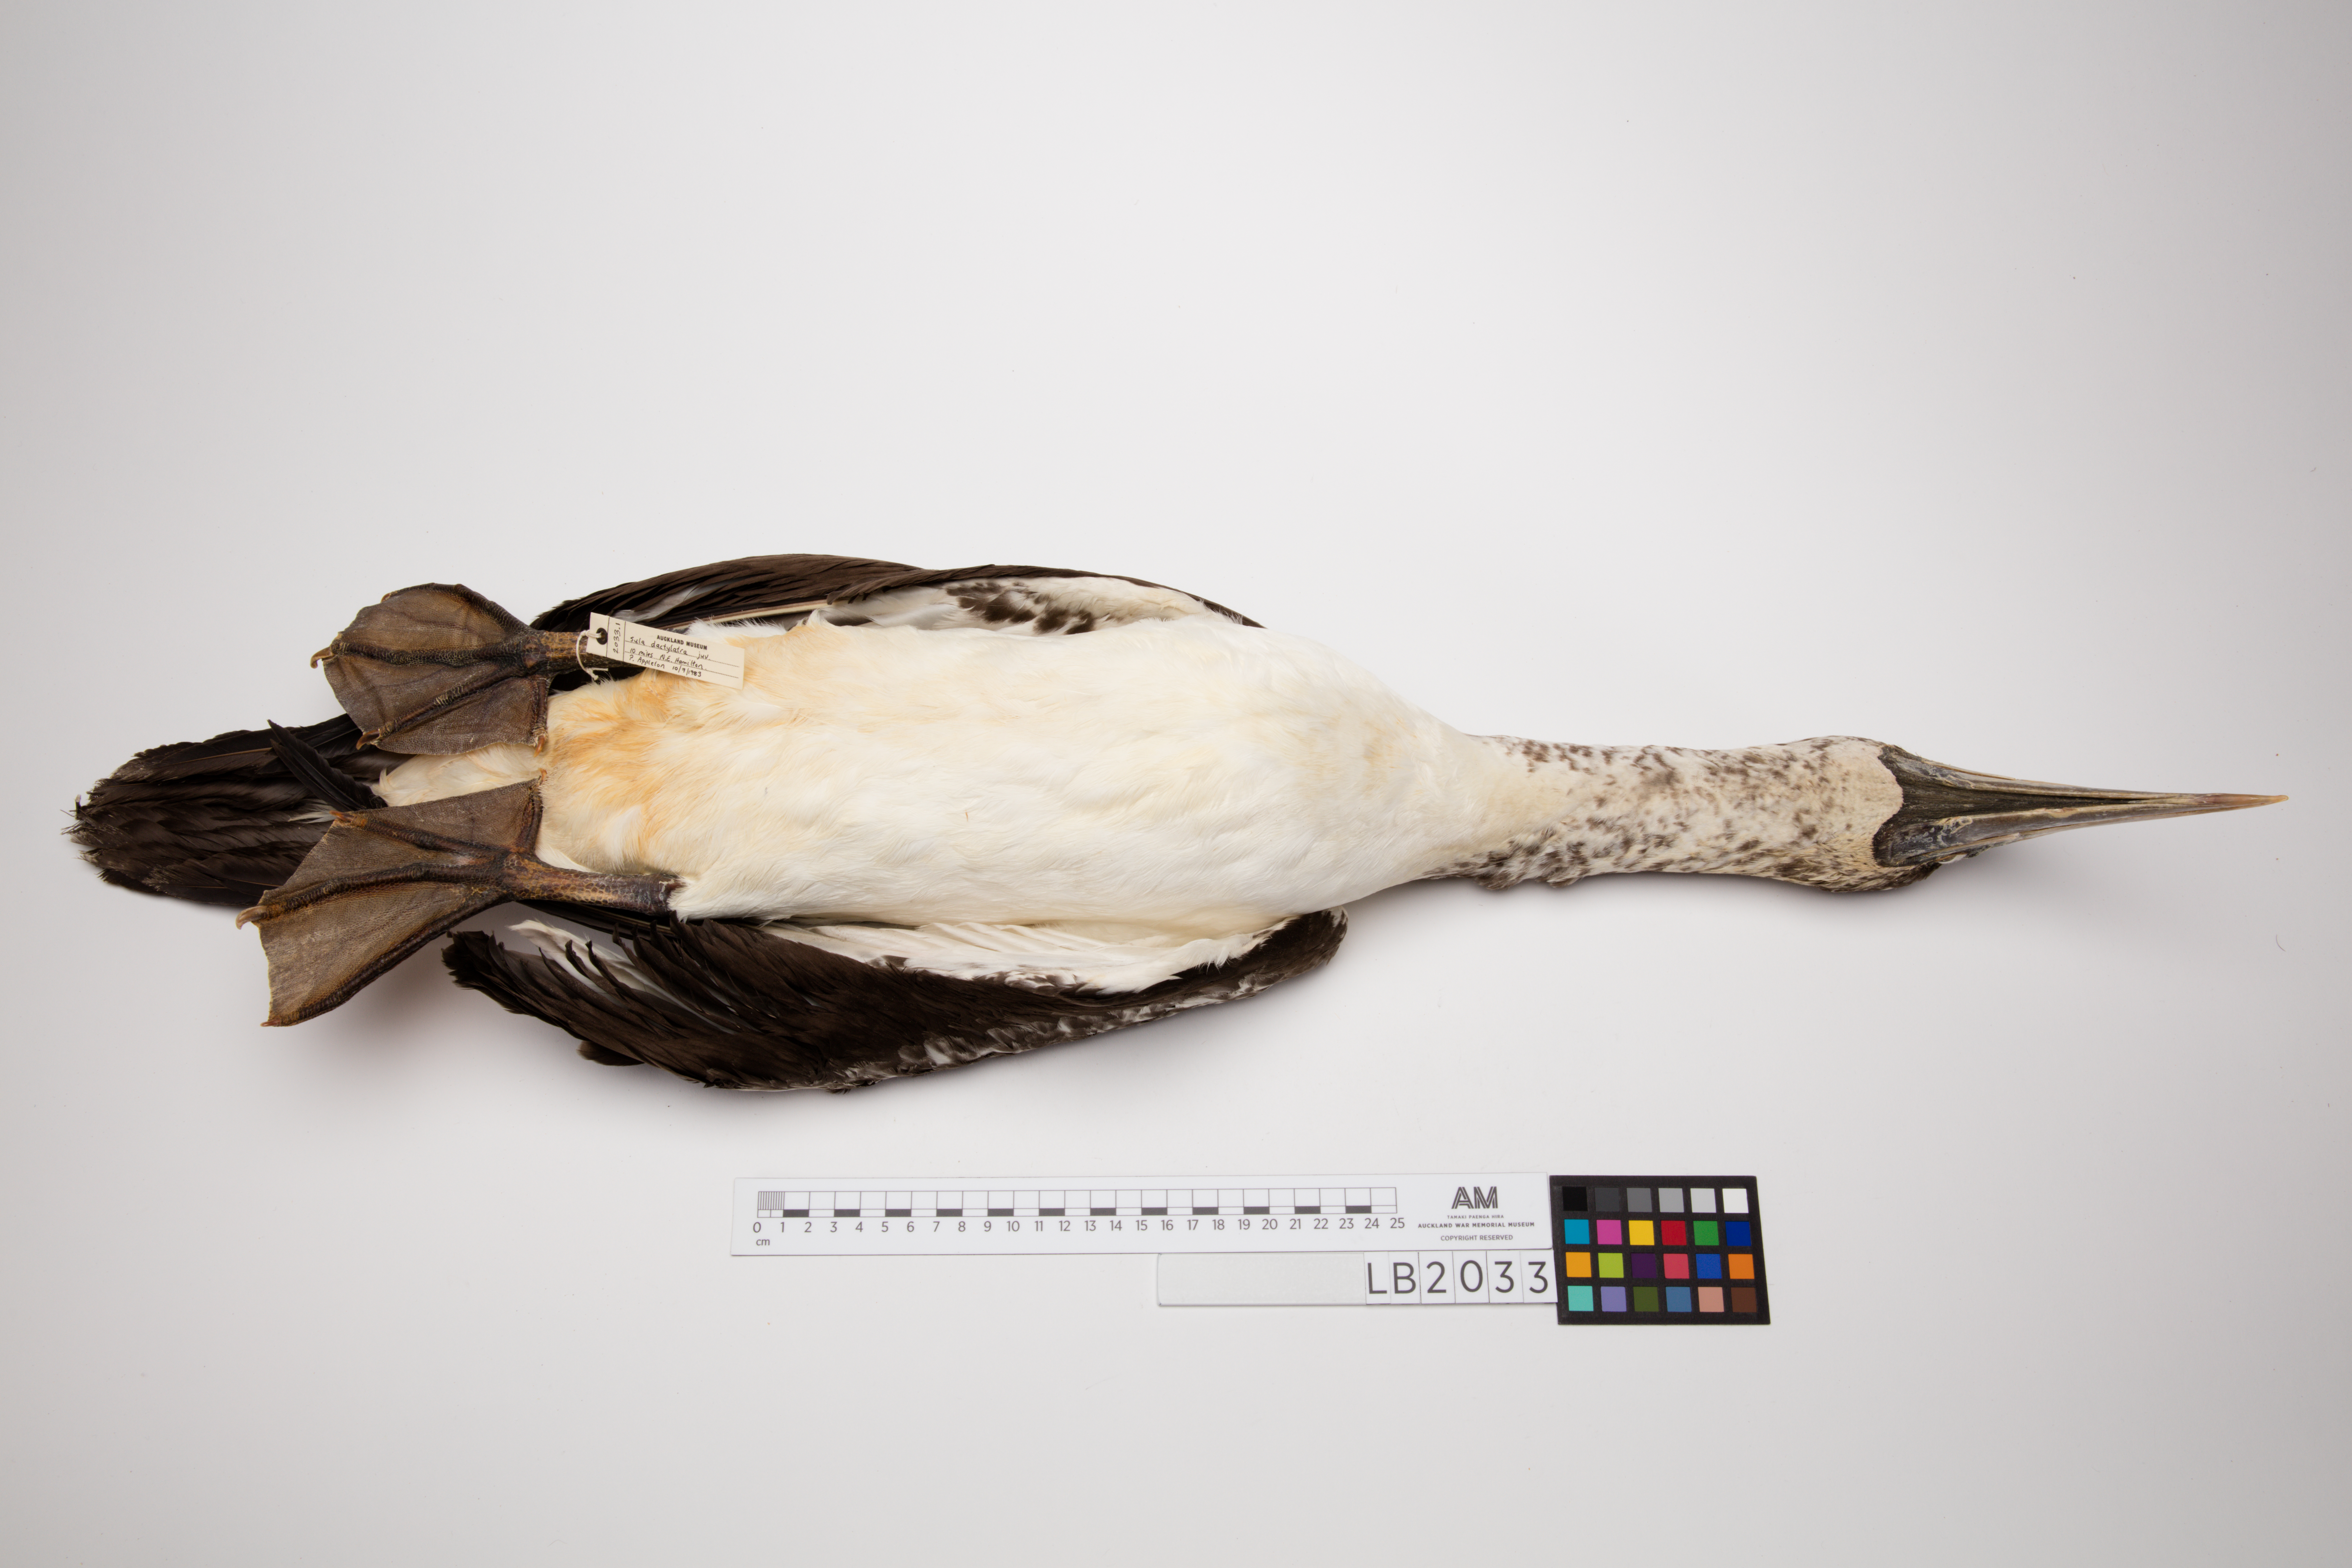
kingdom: Animalia
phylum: Chordata
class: Aves
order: Suliformes
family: Sulidae
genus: Sula
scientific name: Sula dactylatra
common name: Masked booby
